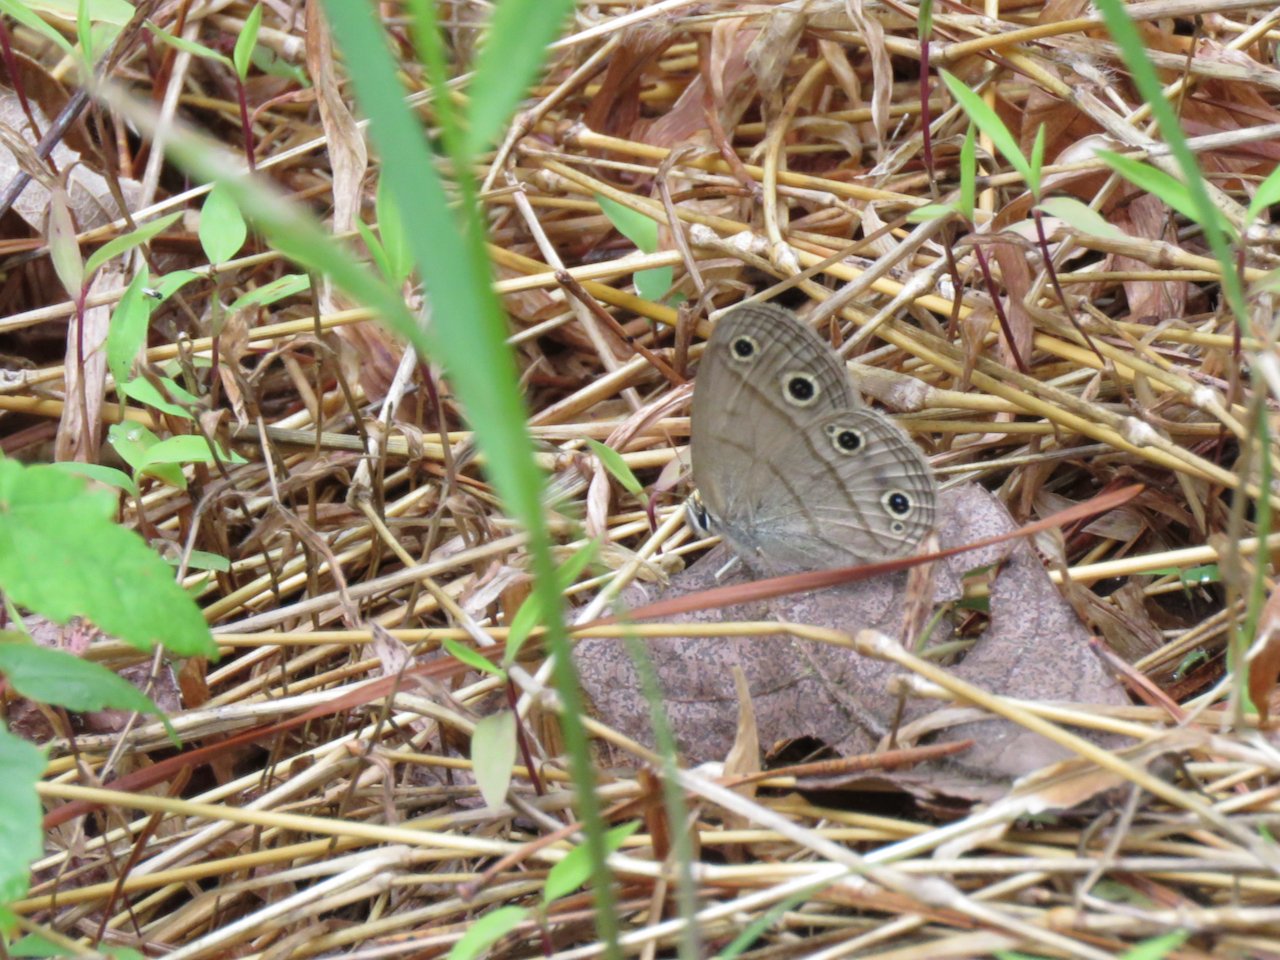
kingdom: Animalia
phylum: Arthropoda
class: Insecta
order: Lepidoptera
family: Nymphalidae
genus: Euptychia
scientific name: Euptychia cymela
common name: Little Wood Satyr
